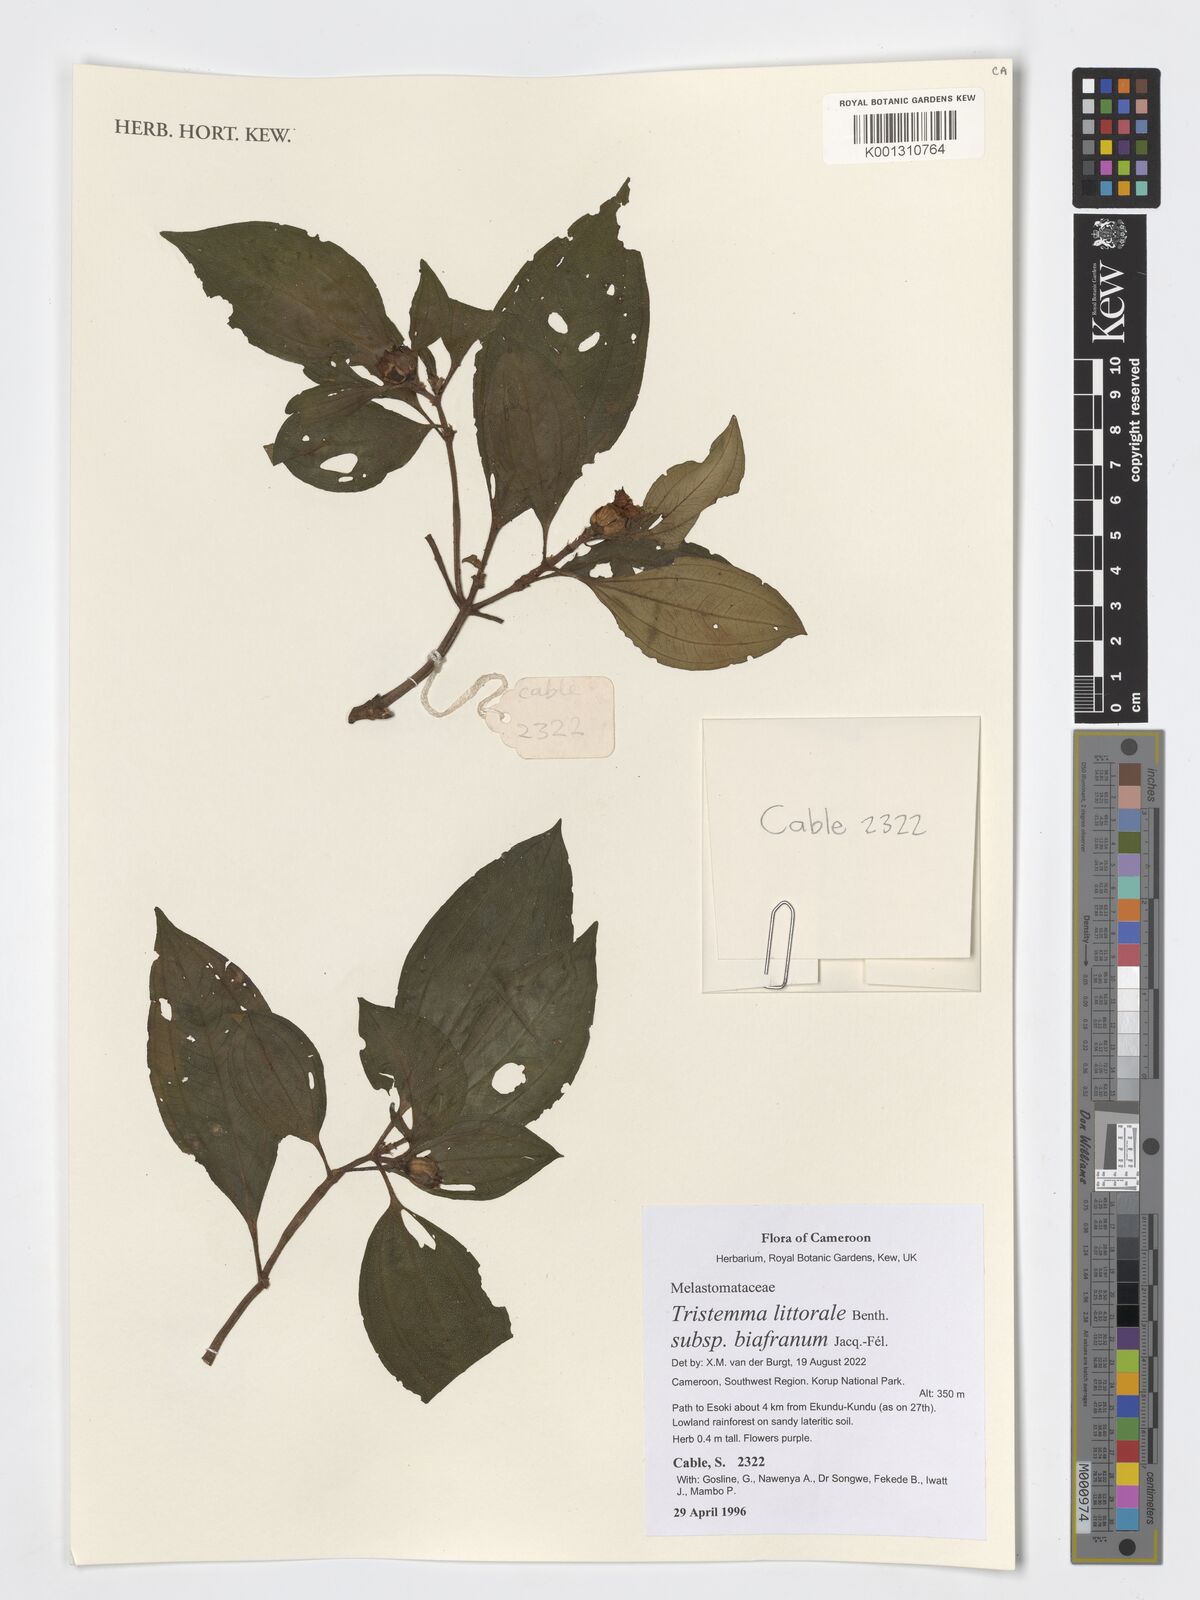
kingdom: Plantae
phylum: Tracheophyta
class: Magnoliopsida
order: Myrtales
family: Melastomataceae
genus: Tristemma
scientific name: Tristemma littorale
